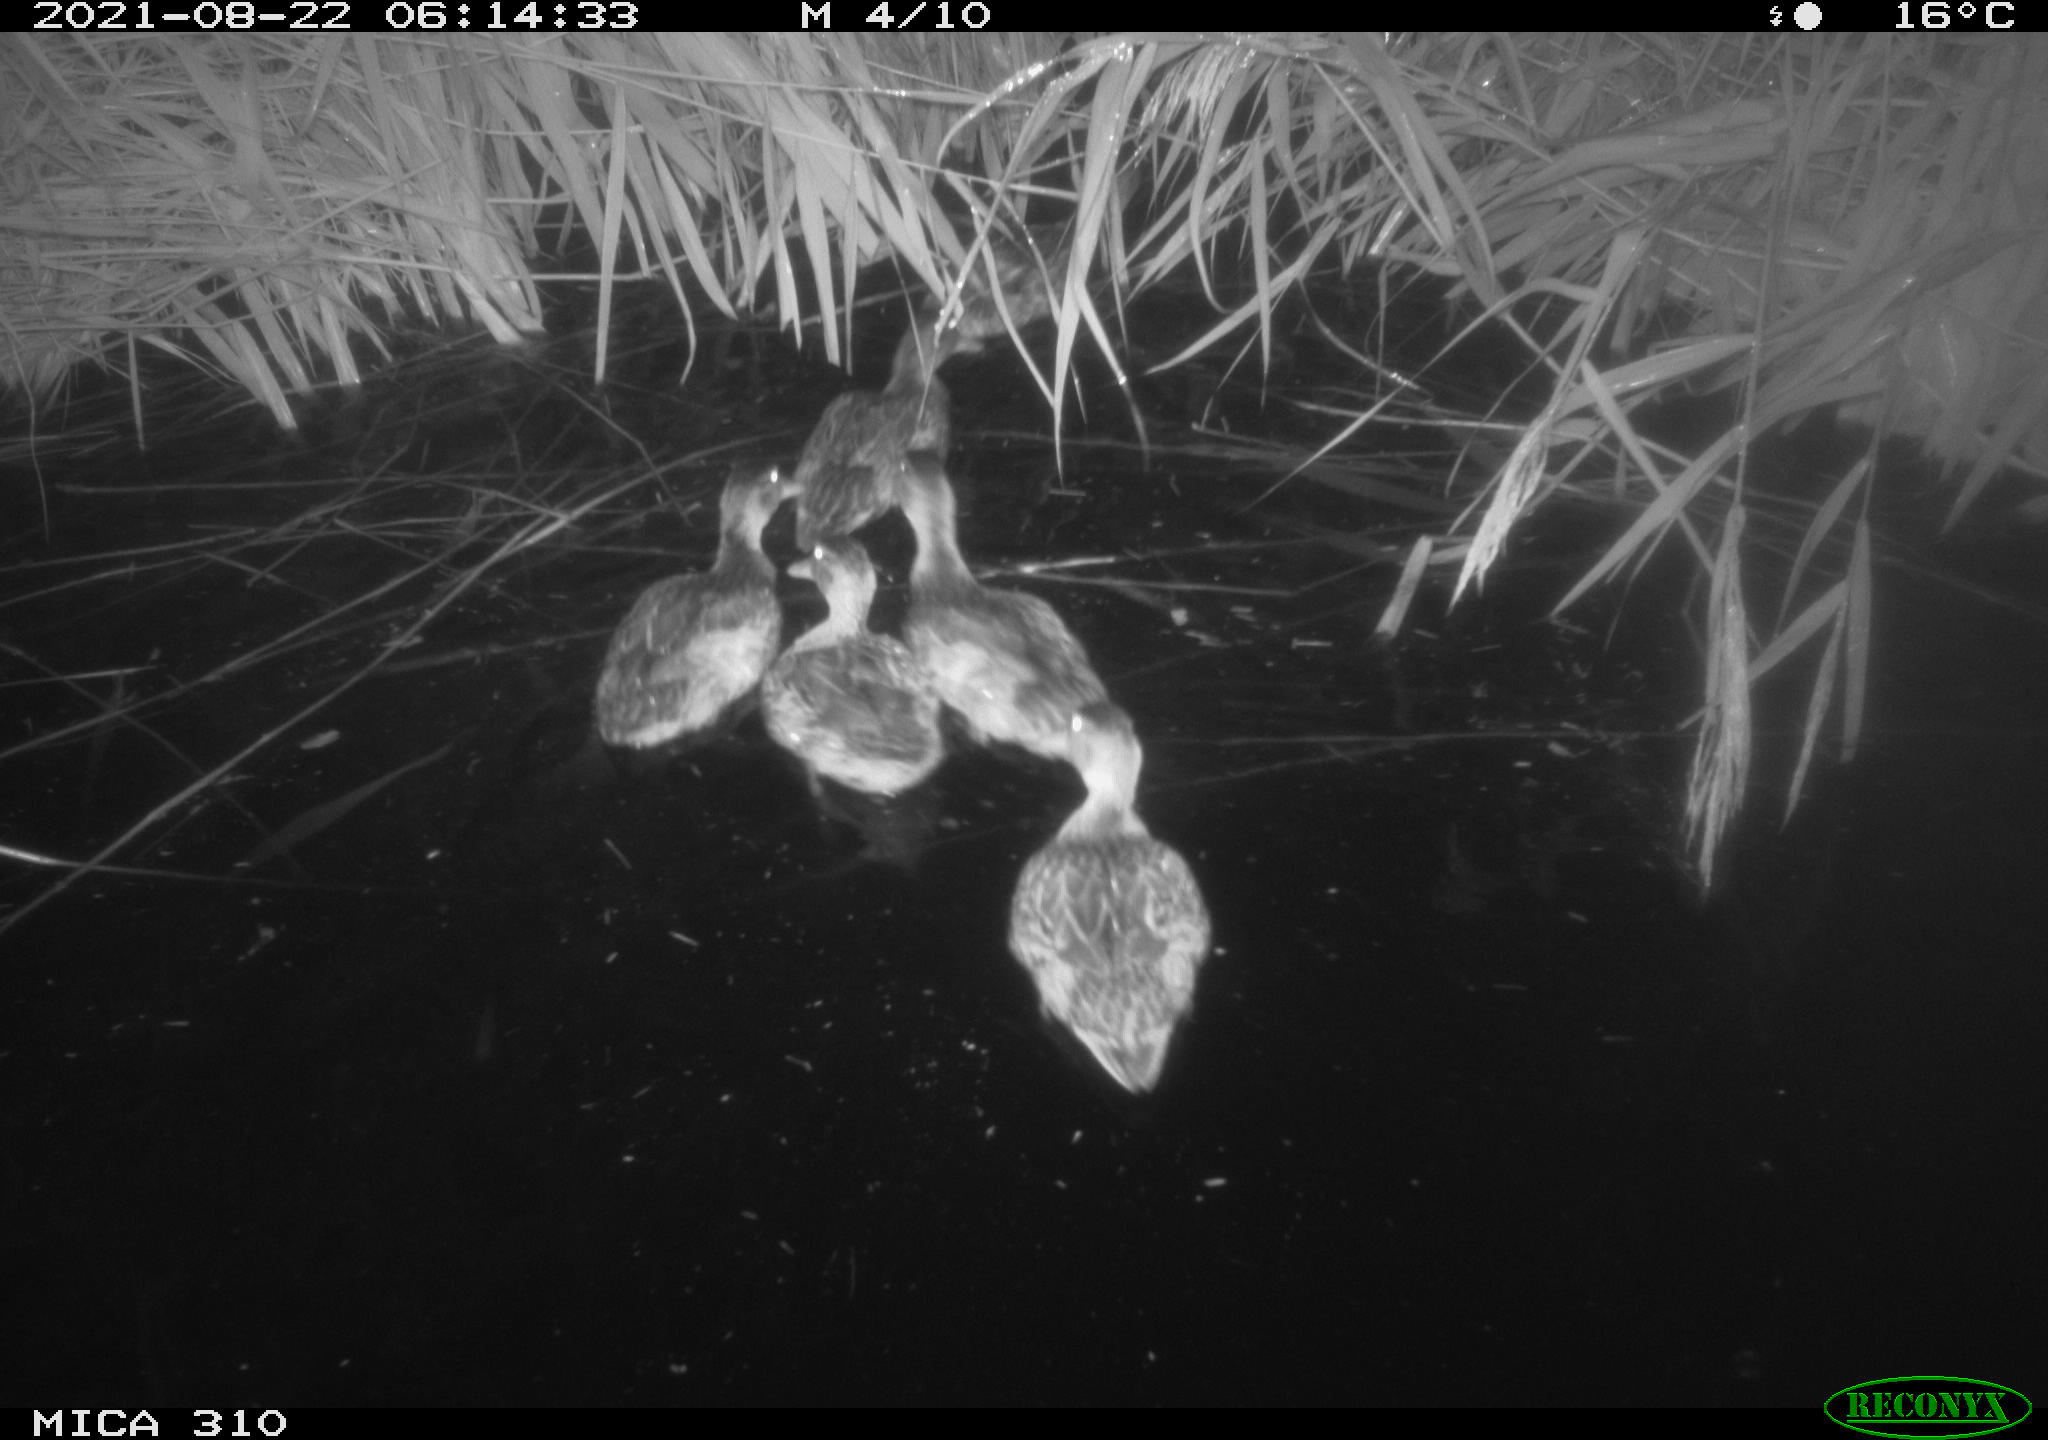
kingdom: Animalia
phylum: Chordata
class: Aves
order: Anseriformes
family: Anatidae
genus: Anas
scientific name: Anas platyrhynchos
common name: Mallard
